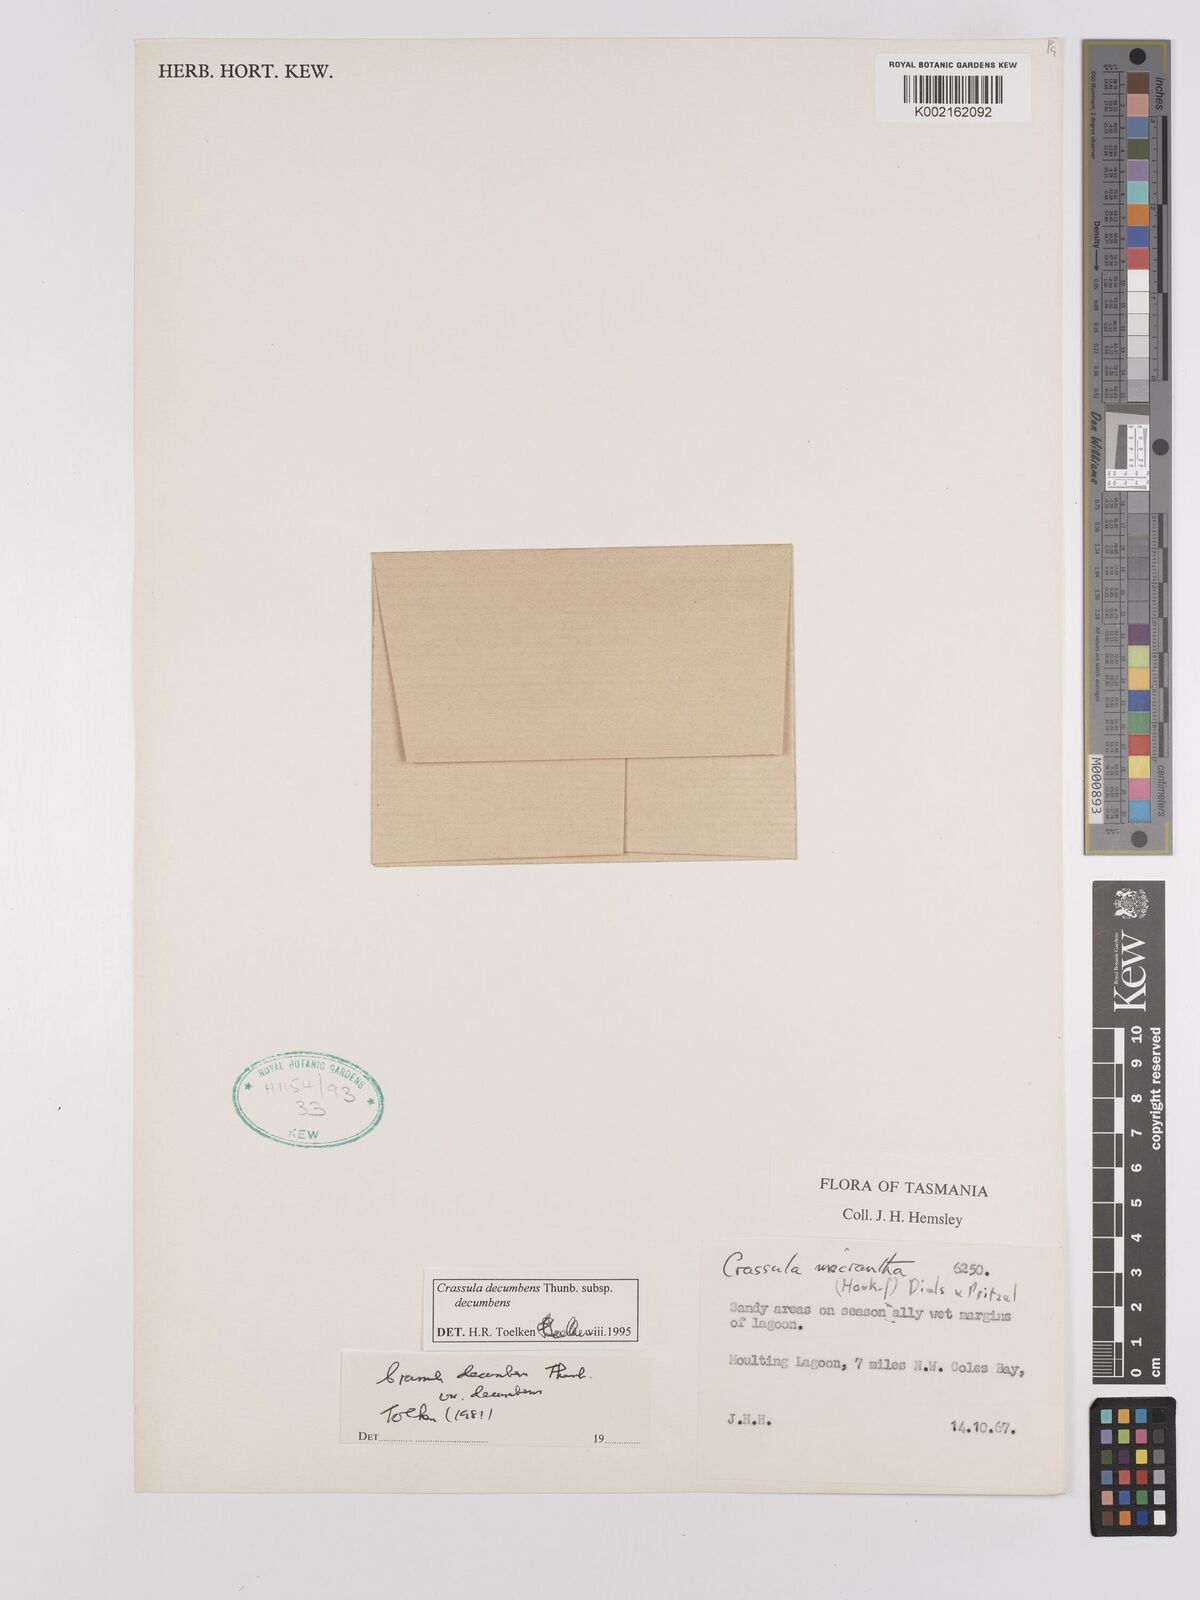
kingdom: Plantae
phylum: Tracheophyta
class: Magnoliopsida
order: Saxifragales
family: Crassulaceae
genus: Crassula
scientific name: Crassula decumbens
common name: Scilly pigmyweed
